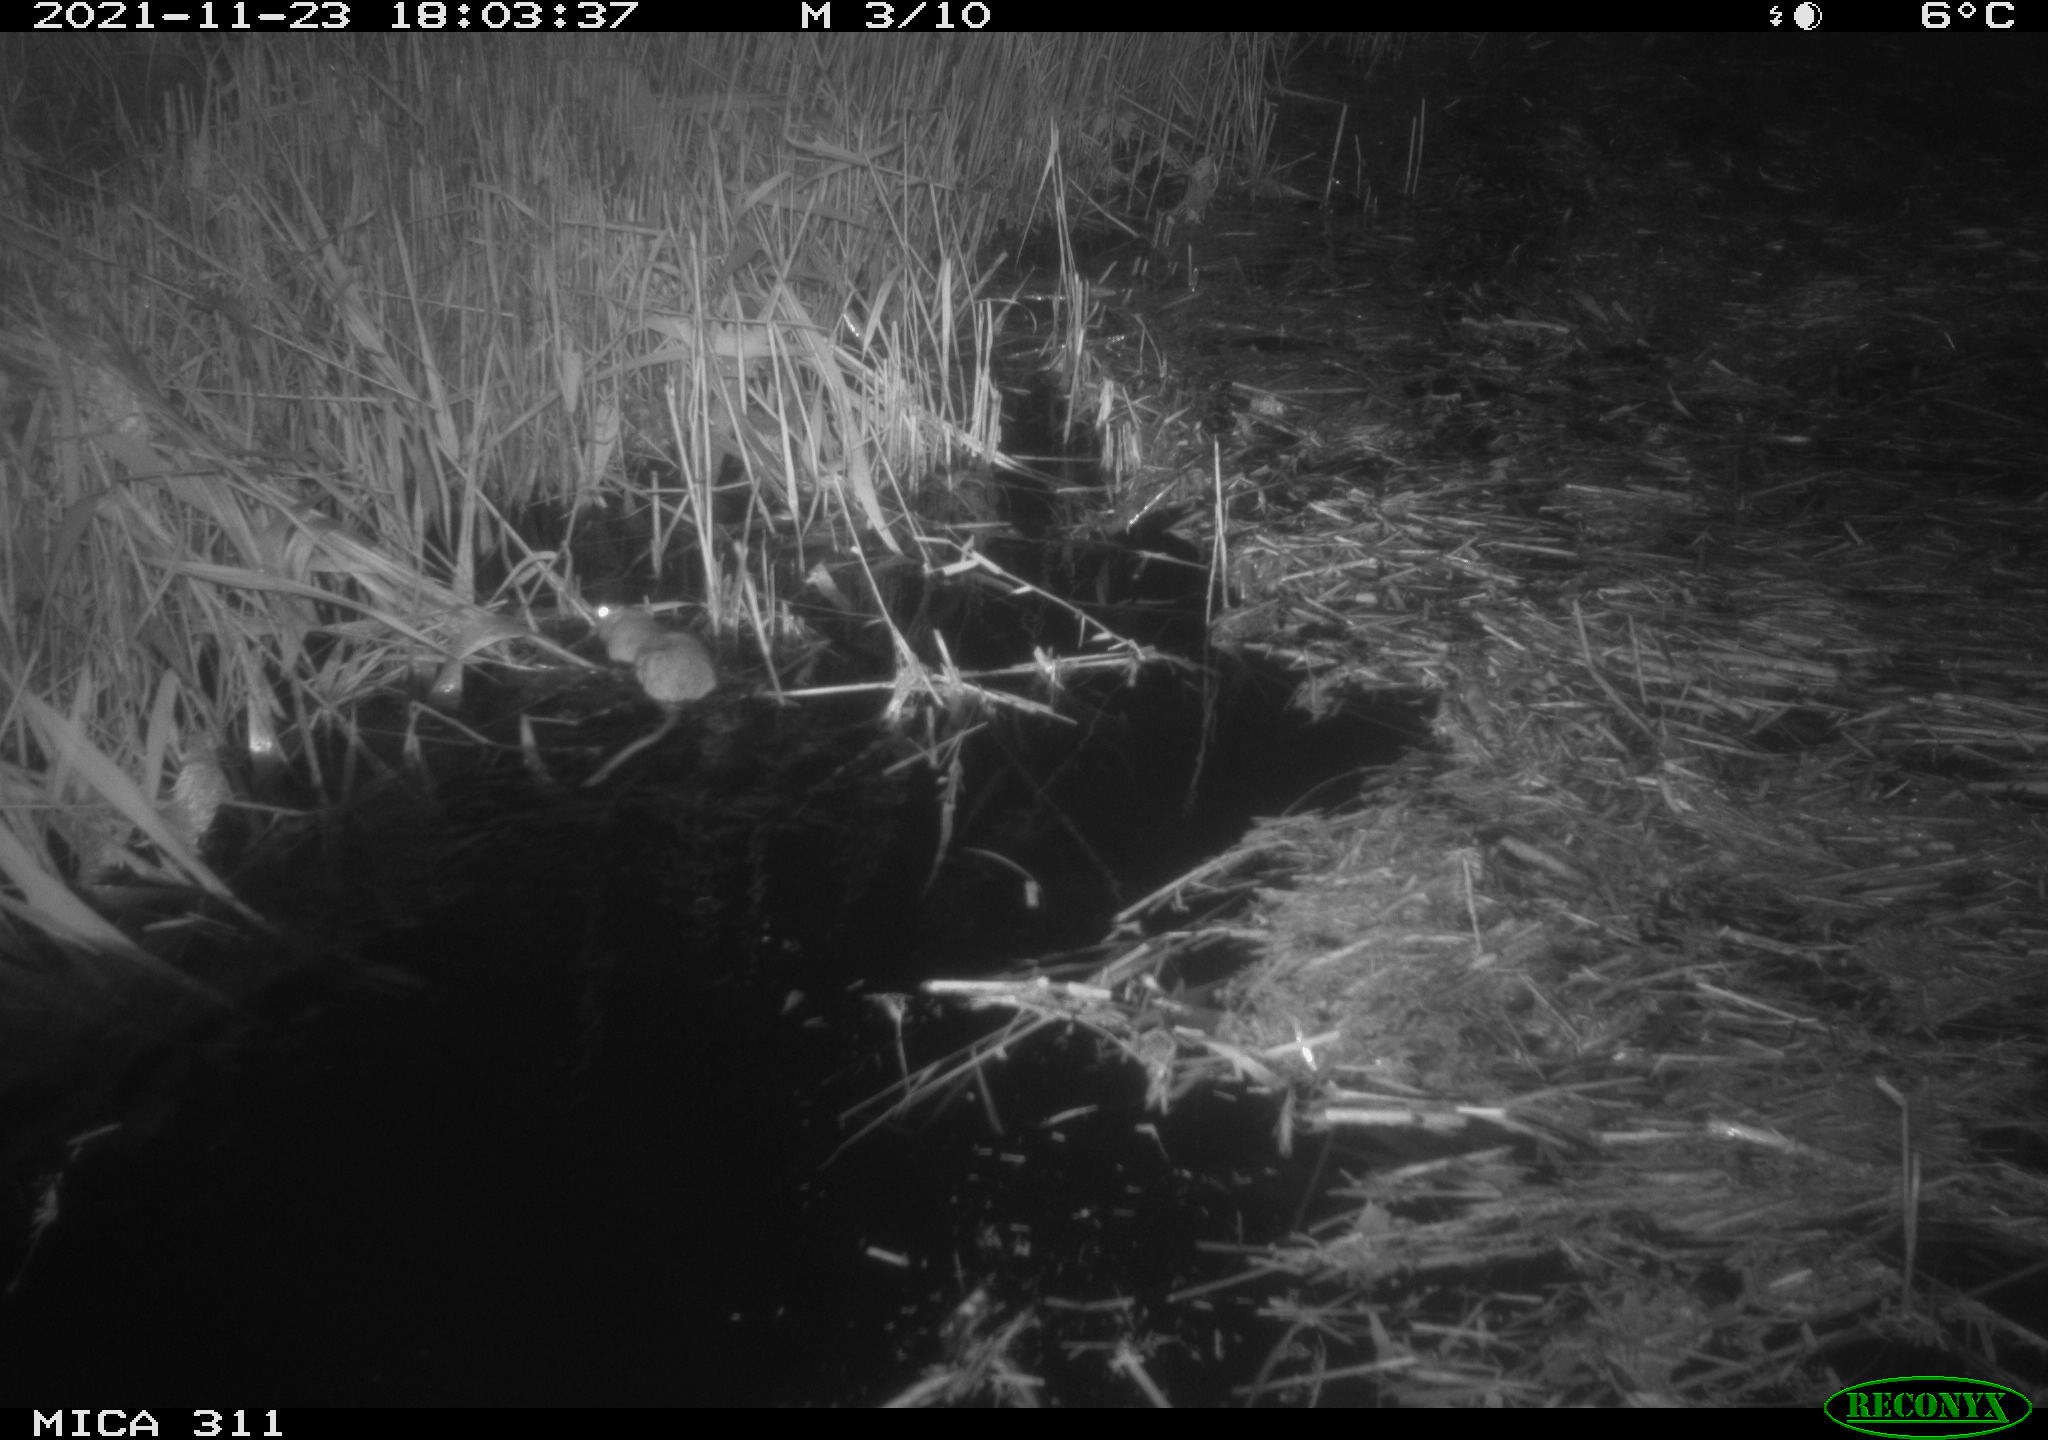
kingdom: Animalia
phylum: Chordata
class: Mammalia
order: Rodentia
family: Muridae
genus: Rattus
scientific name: Rattus norvegicus
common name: Brown rat
